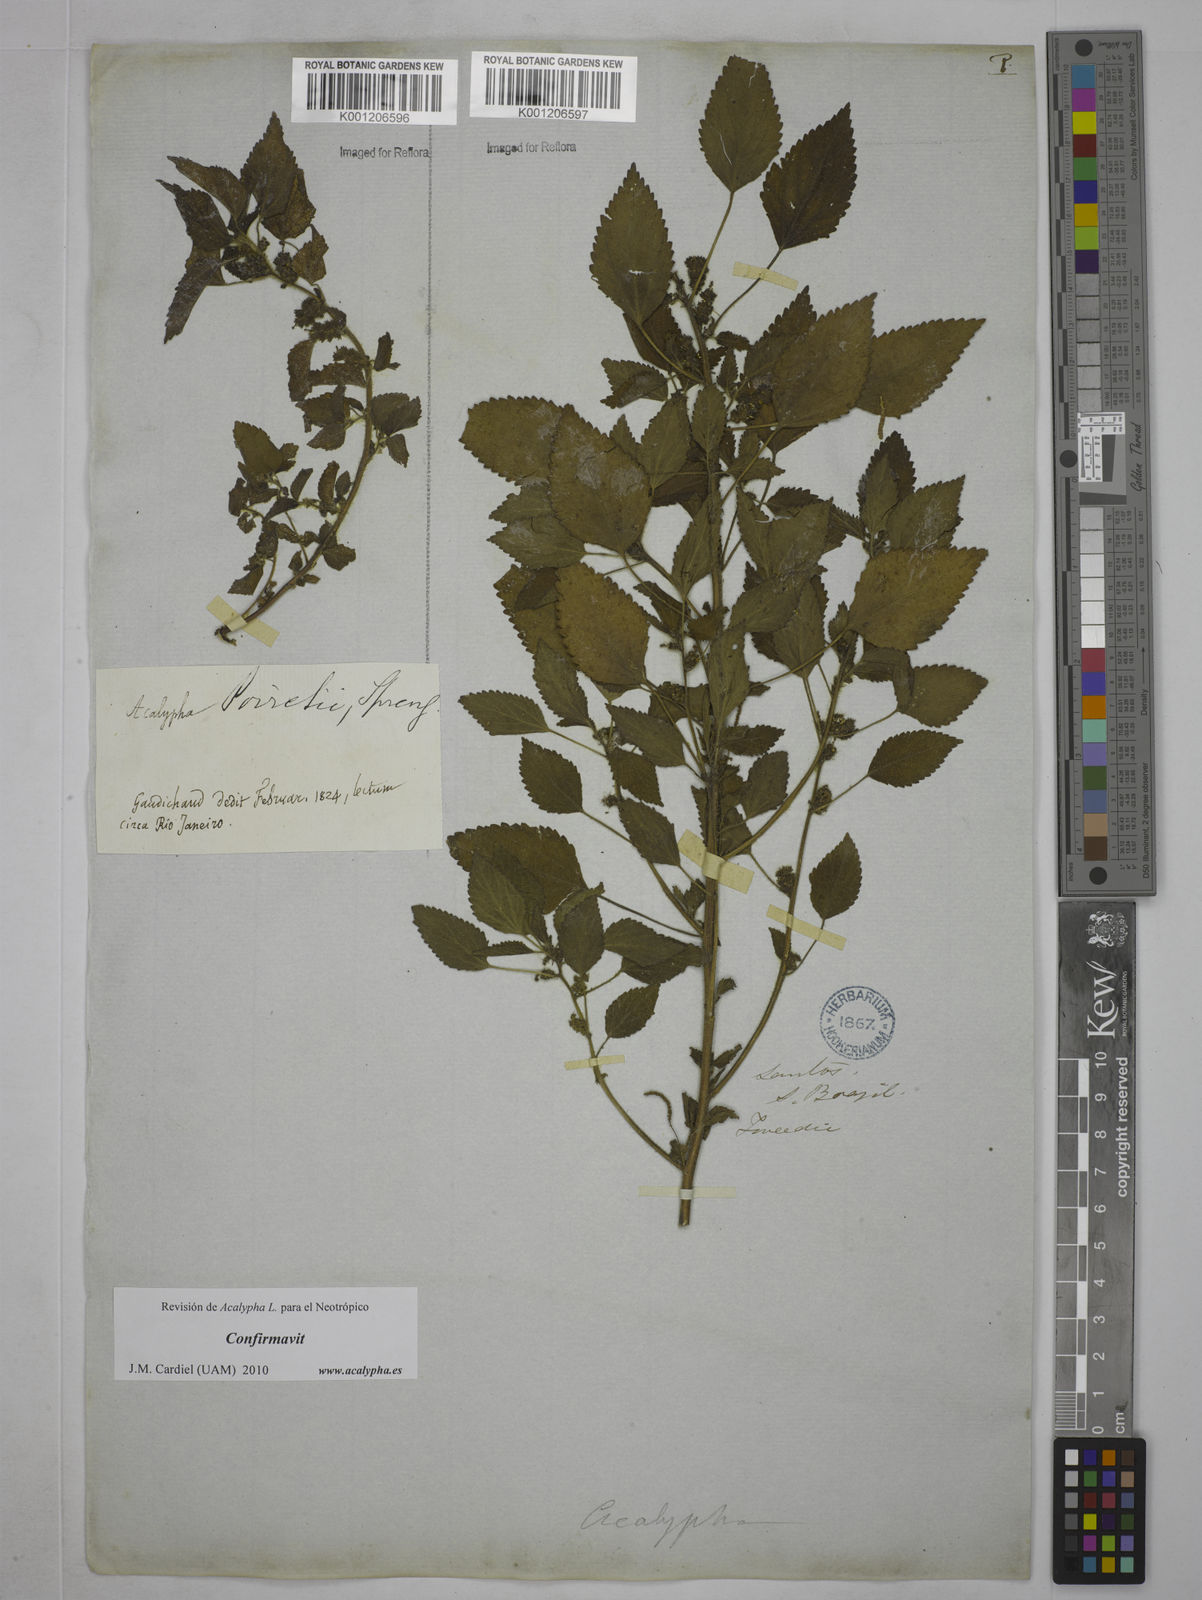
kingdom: Plantae
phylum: Tracheophyta
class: Magnoliopsida
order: Malpighiales
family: Euphorbiaceae
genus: Acalypha
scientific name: Acalypha poiretii
